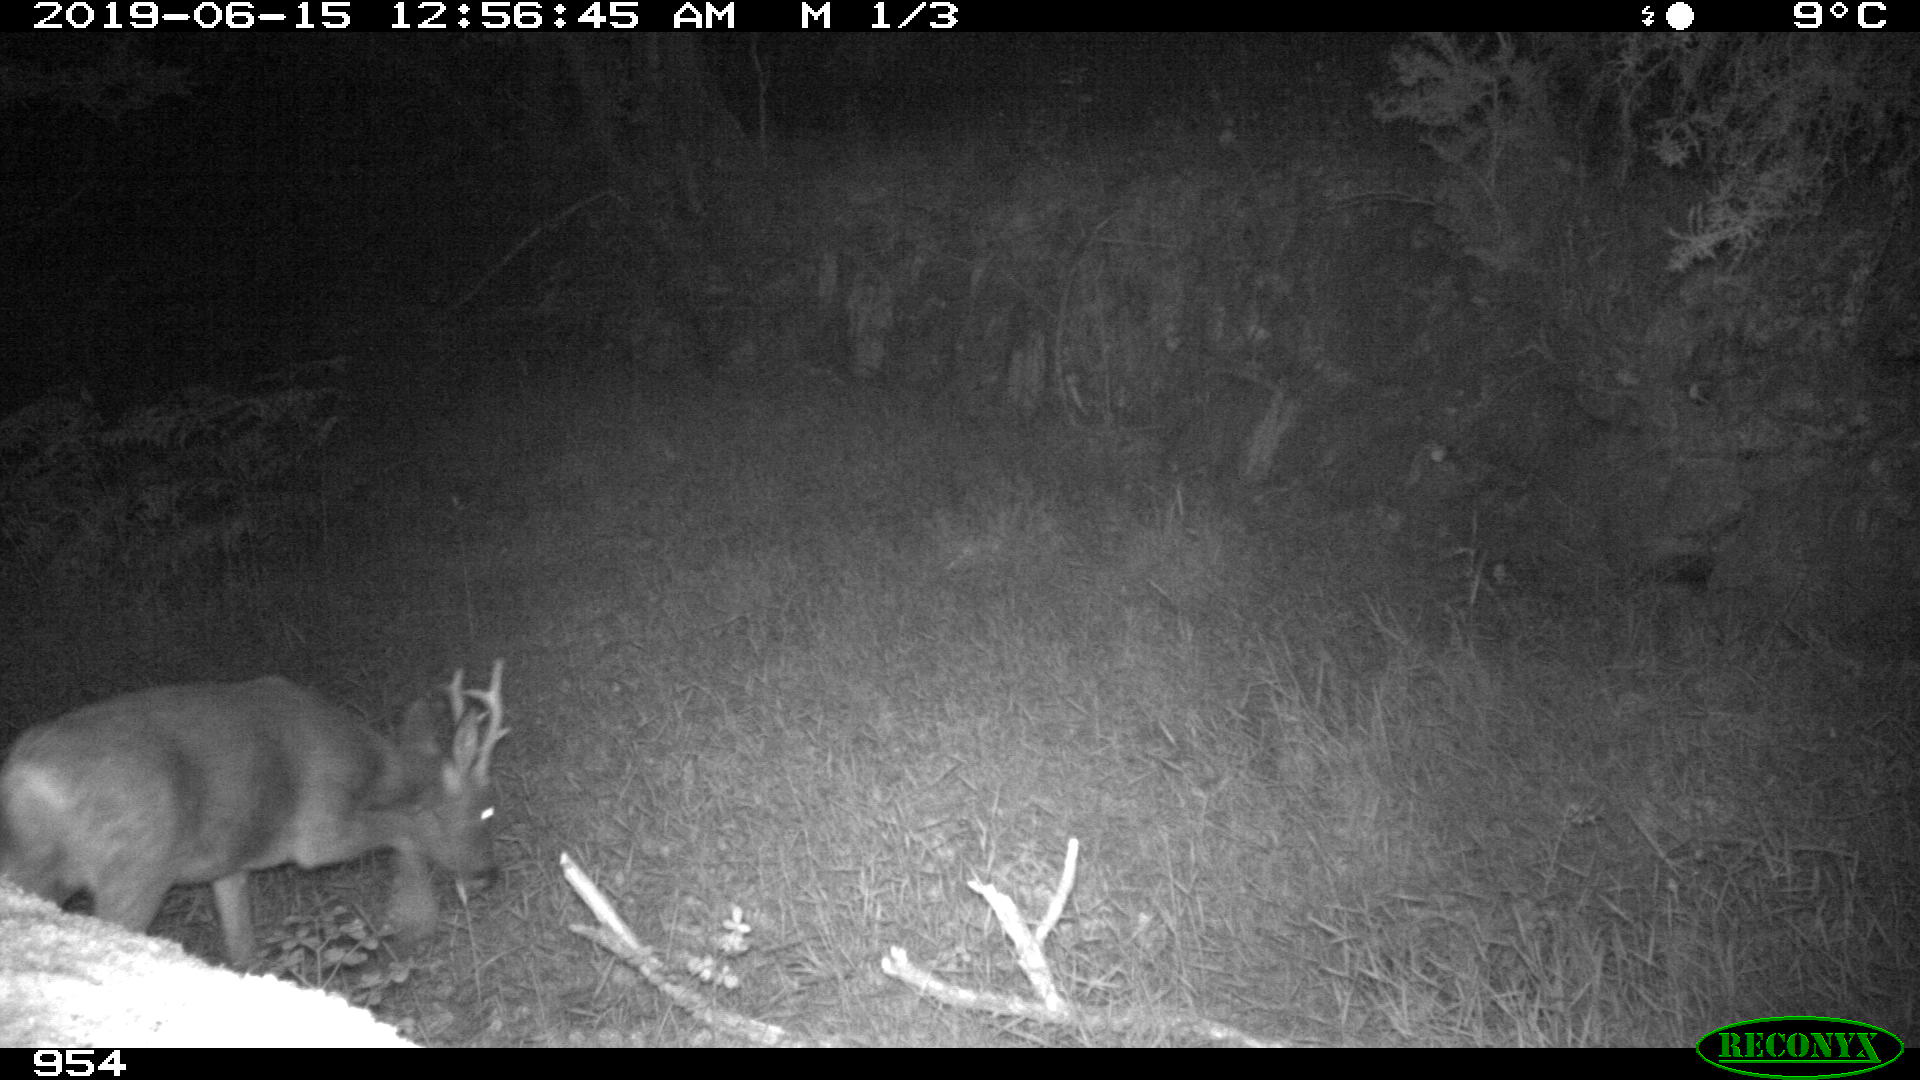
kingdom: Animalia
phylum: Chordata
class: Mammalia
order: Artiodactyla
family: Cervidae
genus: Capreolus
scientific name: Capreolus capreolus
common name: Western roe deer
